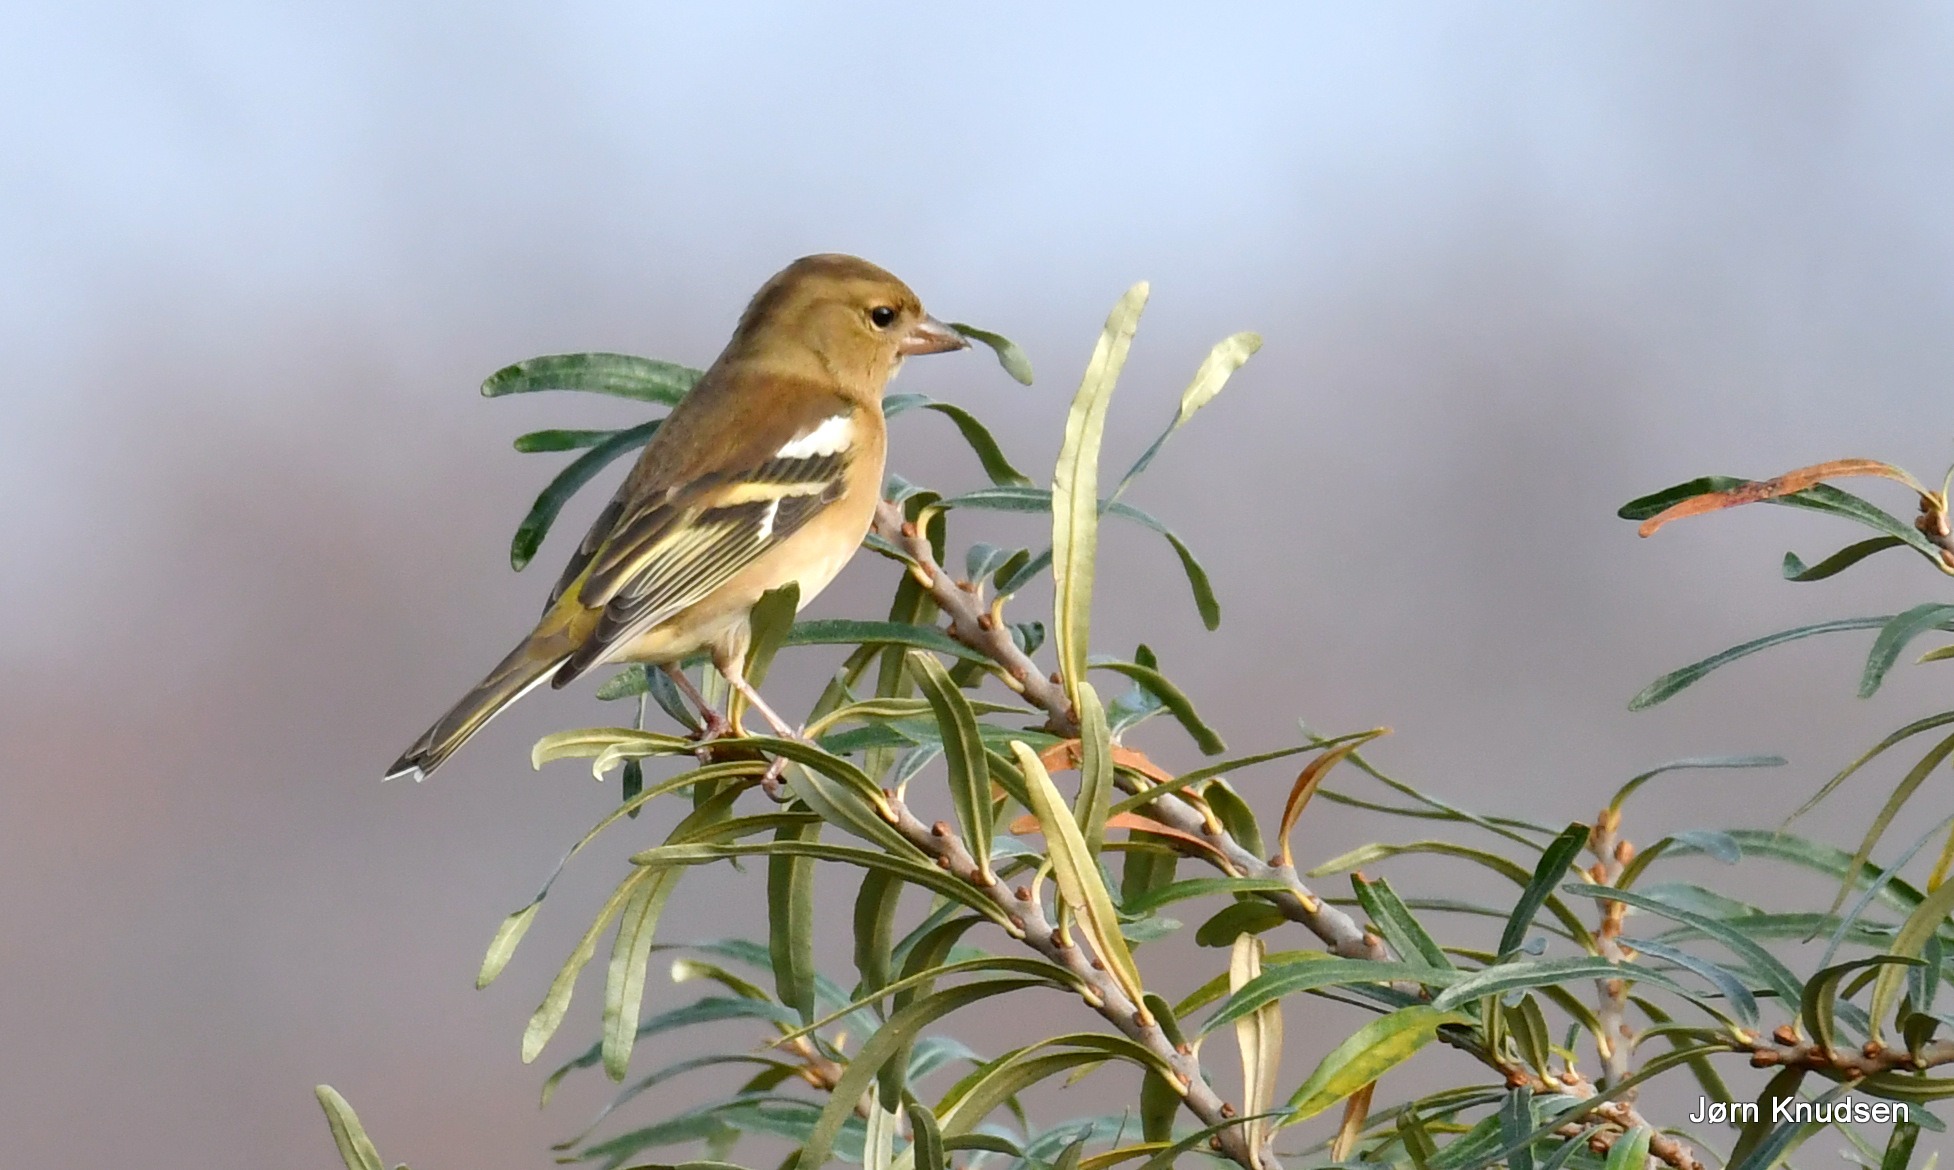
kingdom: Animalia
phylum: Chordata
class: Aves
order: Passeriformes
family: Fringillidae
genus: Fringilla
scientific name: Fringilla coelebs
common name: Bogfinke
